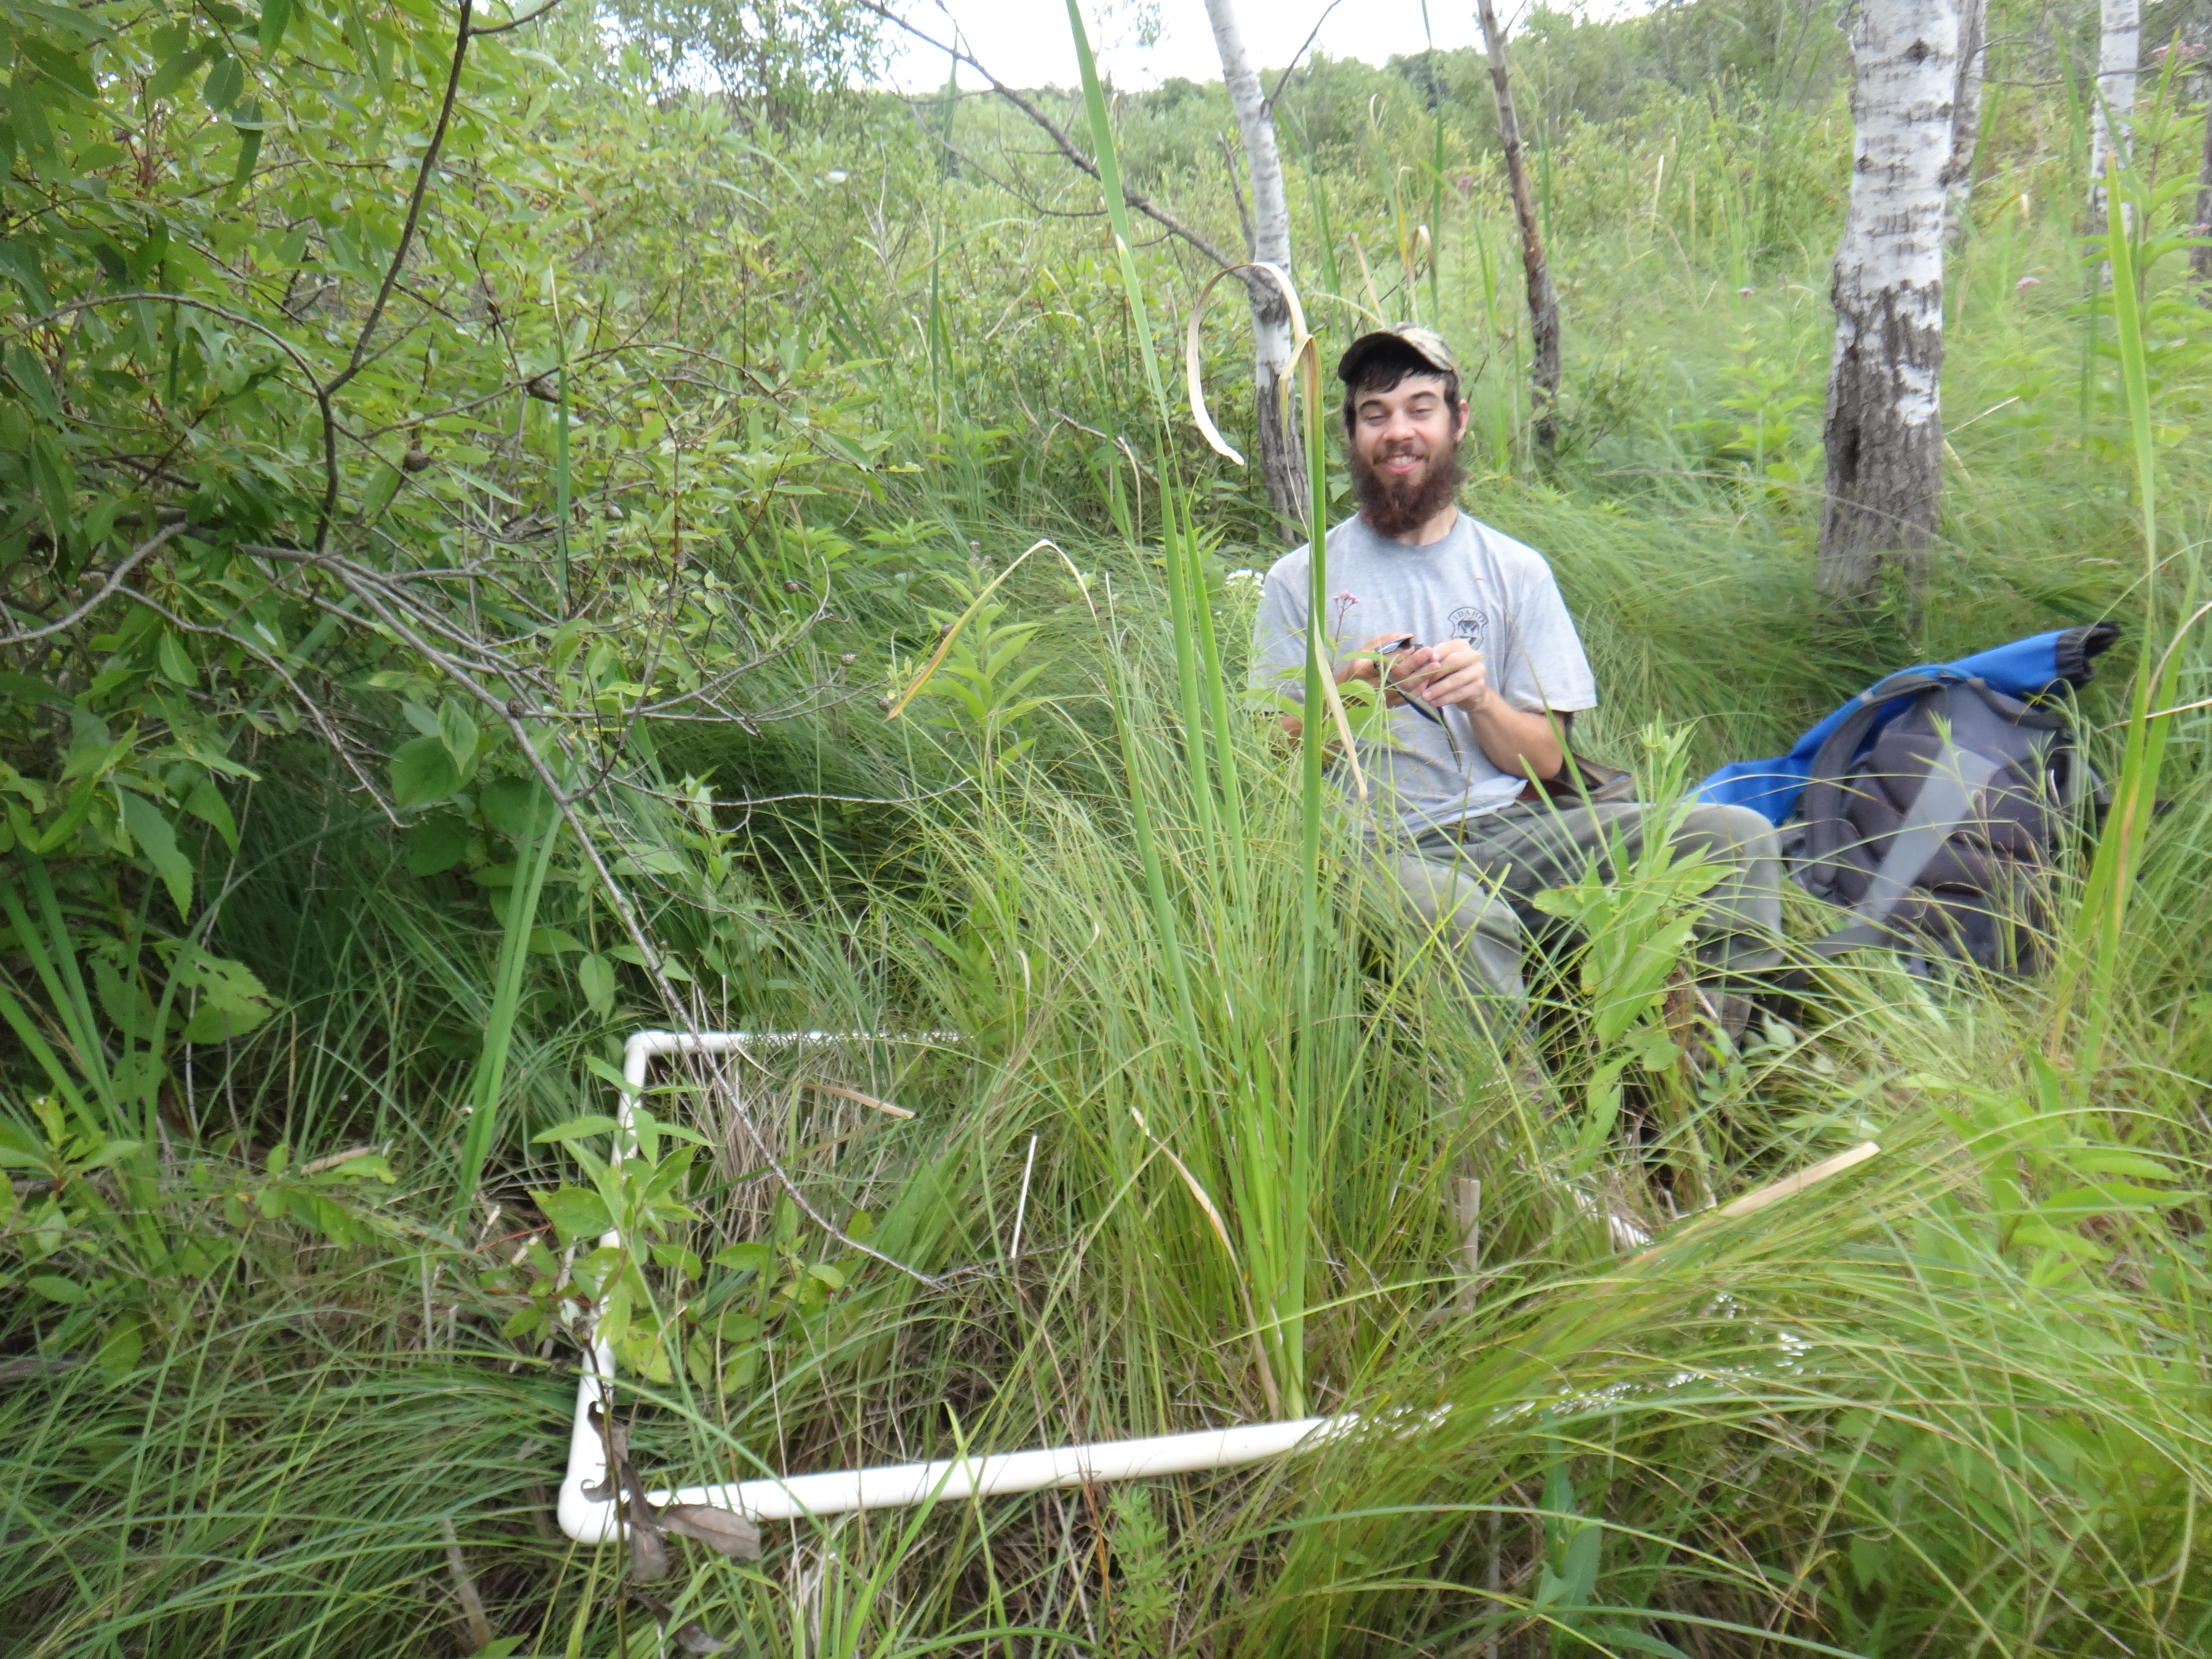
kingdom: Plantae
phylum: Tracheophyta
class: Liliopsida
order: Poales
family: Cyperaceae
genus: Carex
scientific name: Carex stricta
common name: Hummock sedge
